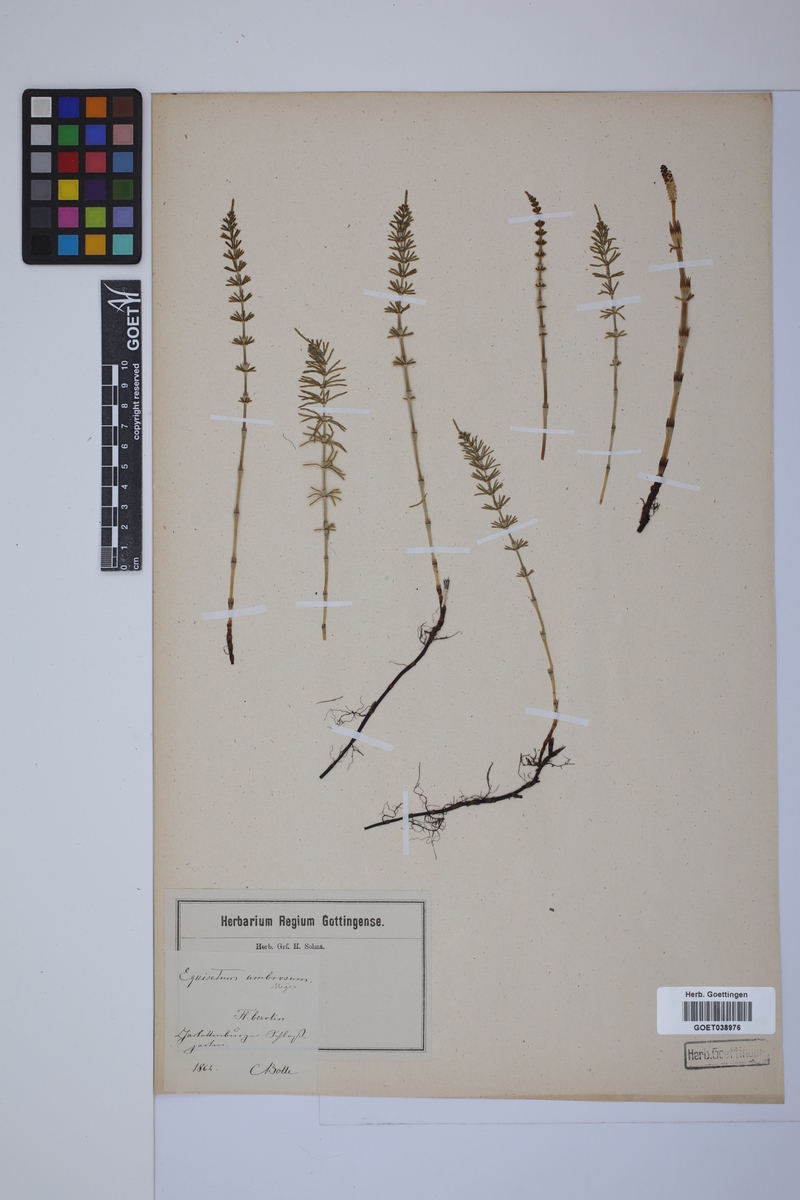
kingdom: Plantae
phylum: Tracheophyta
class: Polypodiopsida
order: Equisetales
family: Equisetaceae
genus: Equisetum
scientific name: Equisetum pratense
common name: Meadow horsetail
